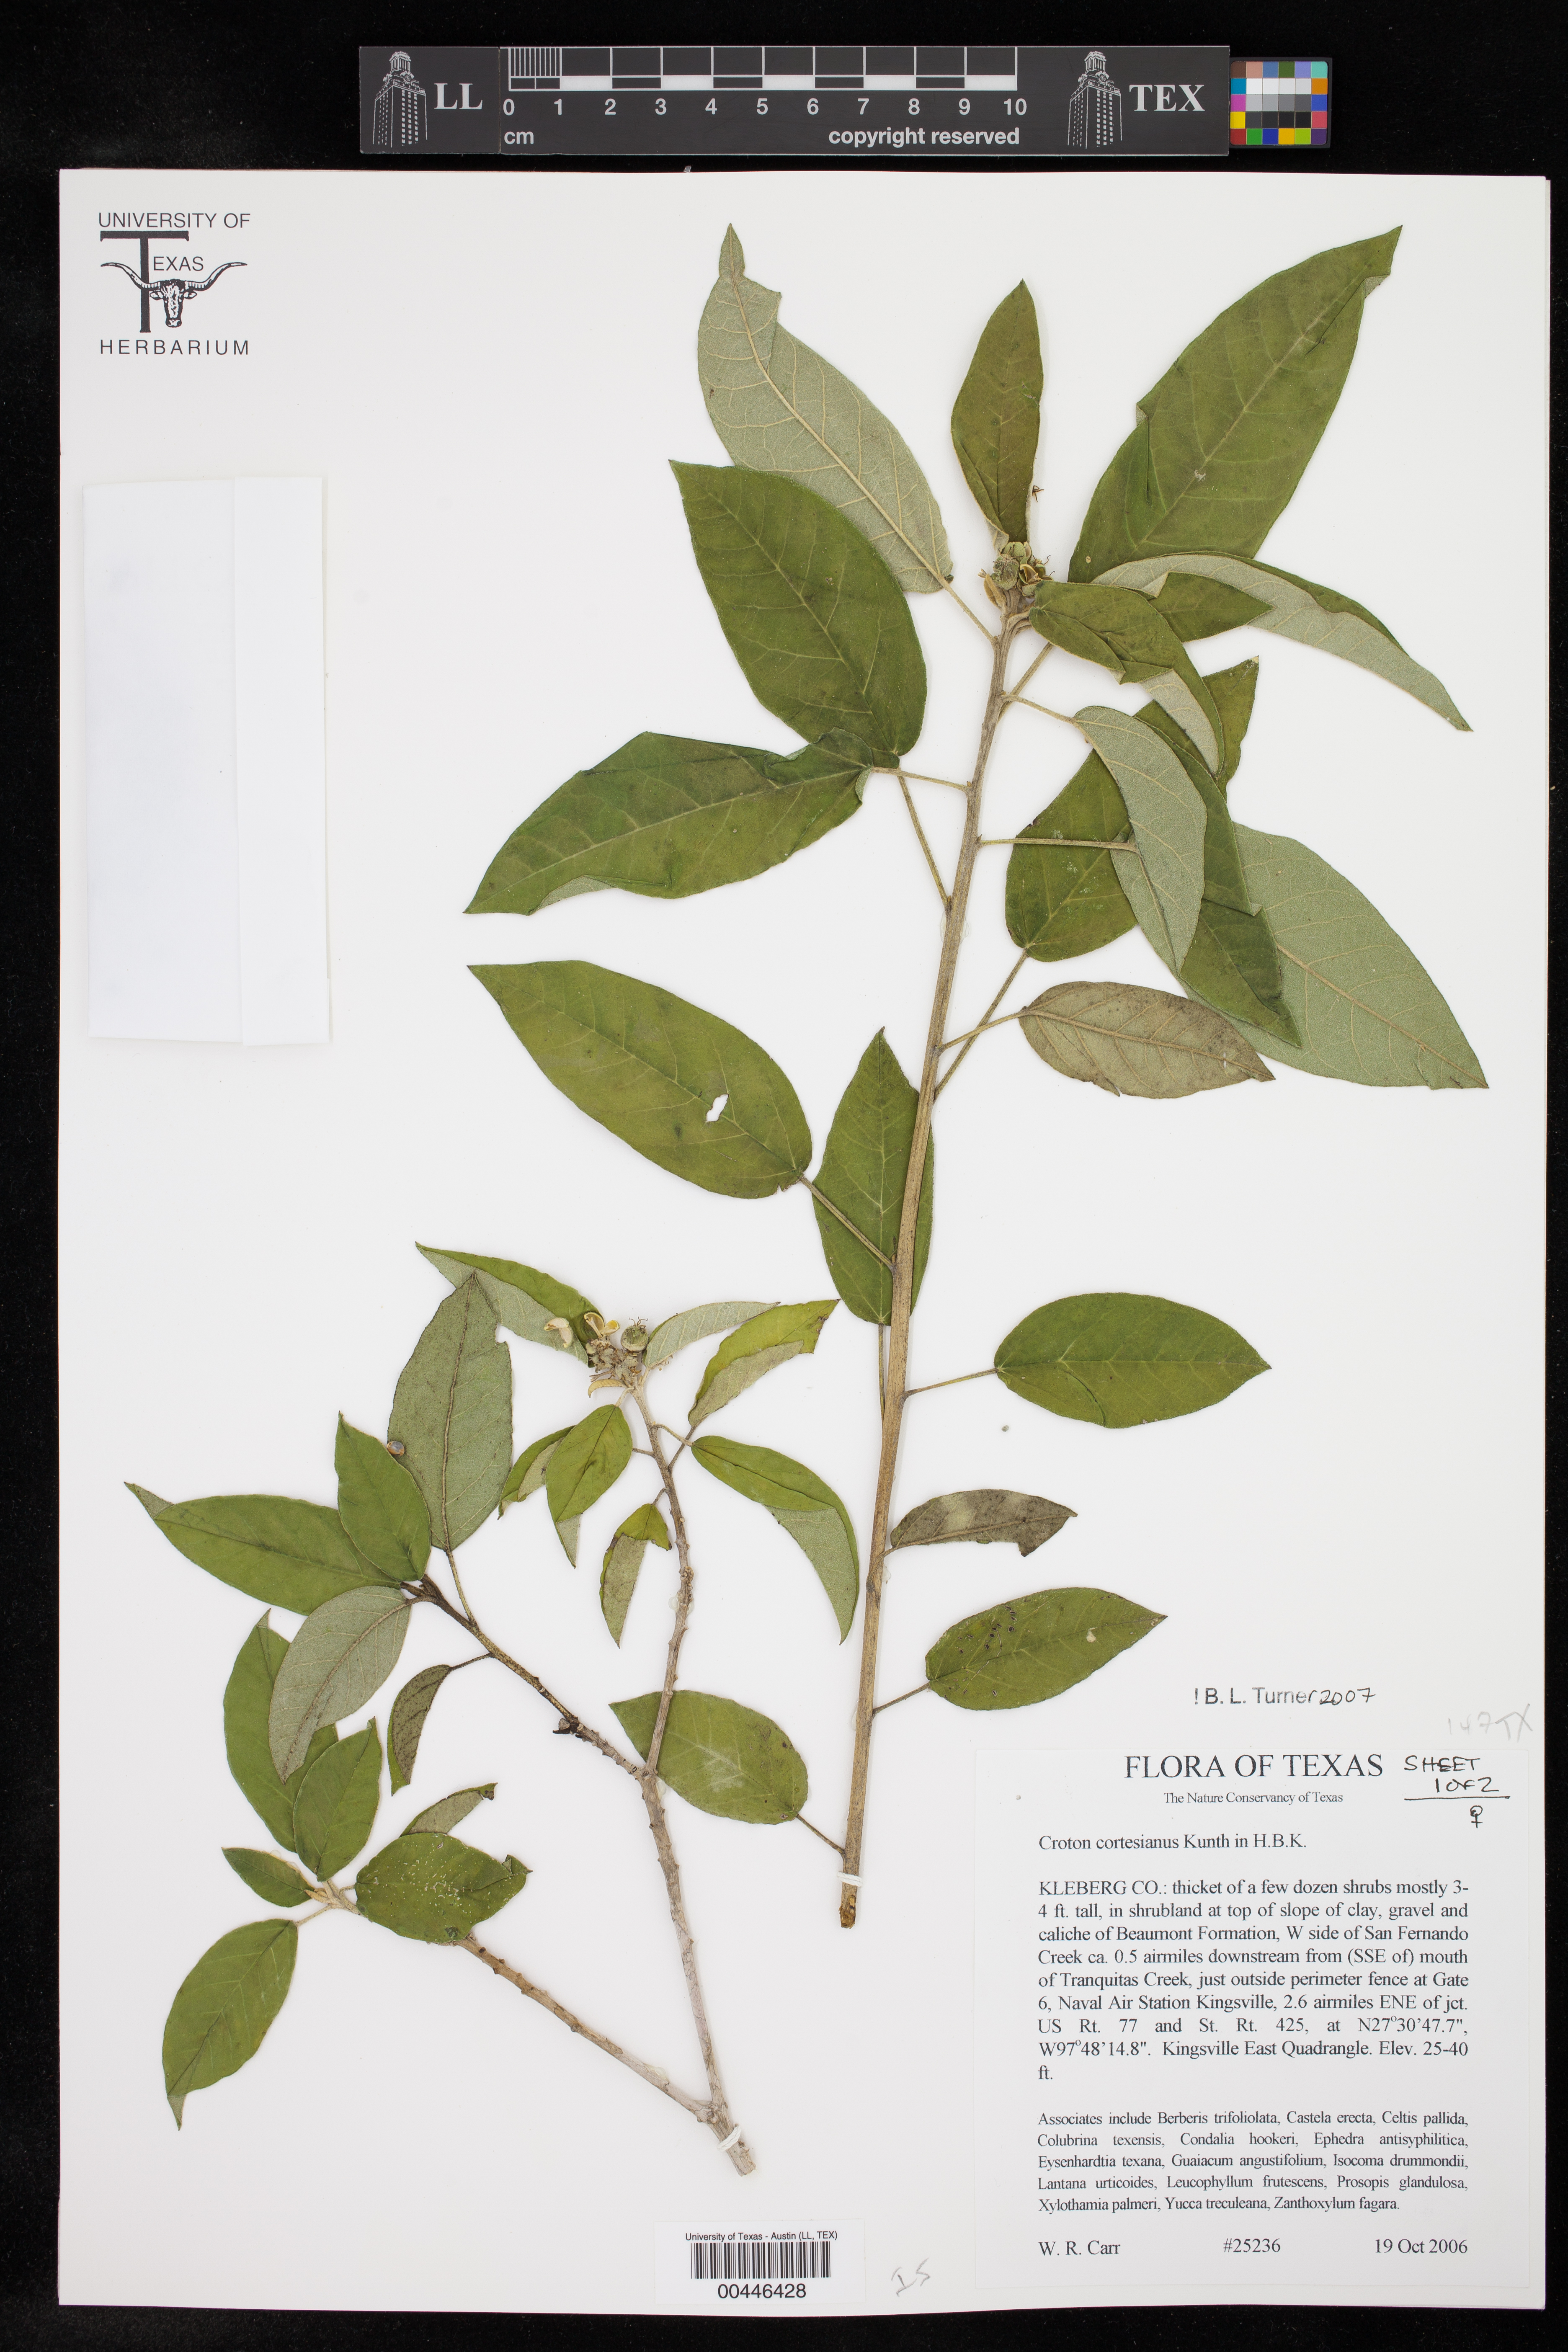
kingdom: Plantae
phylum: Tracheophyta
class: Magnoliopsida
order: Malpighiales
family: Euphorbiaceae
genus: Croton
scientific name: Croton cortesianus
